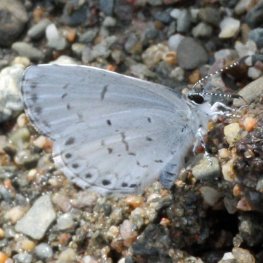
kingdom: Animalia
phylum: Arthropoda
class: Insecta
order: Lepidoptera
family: Lycaenidae
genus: Cyaniris
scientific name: Cyaniris neglecta
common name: Summer Azure
